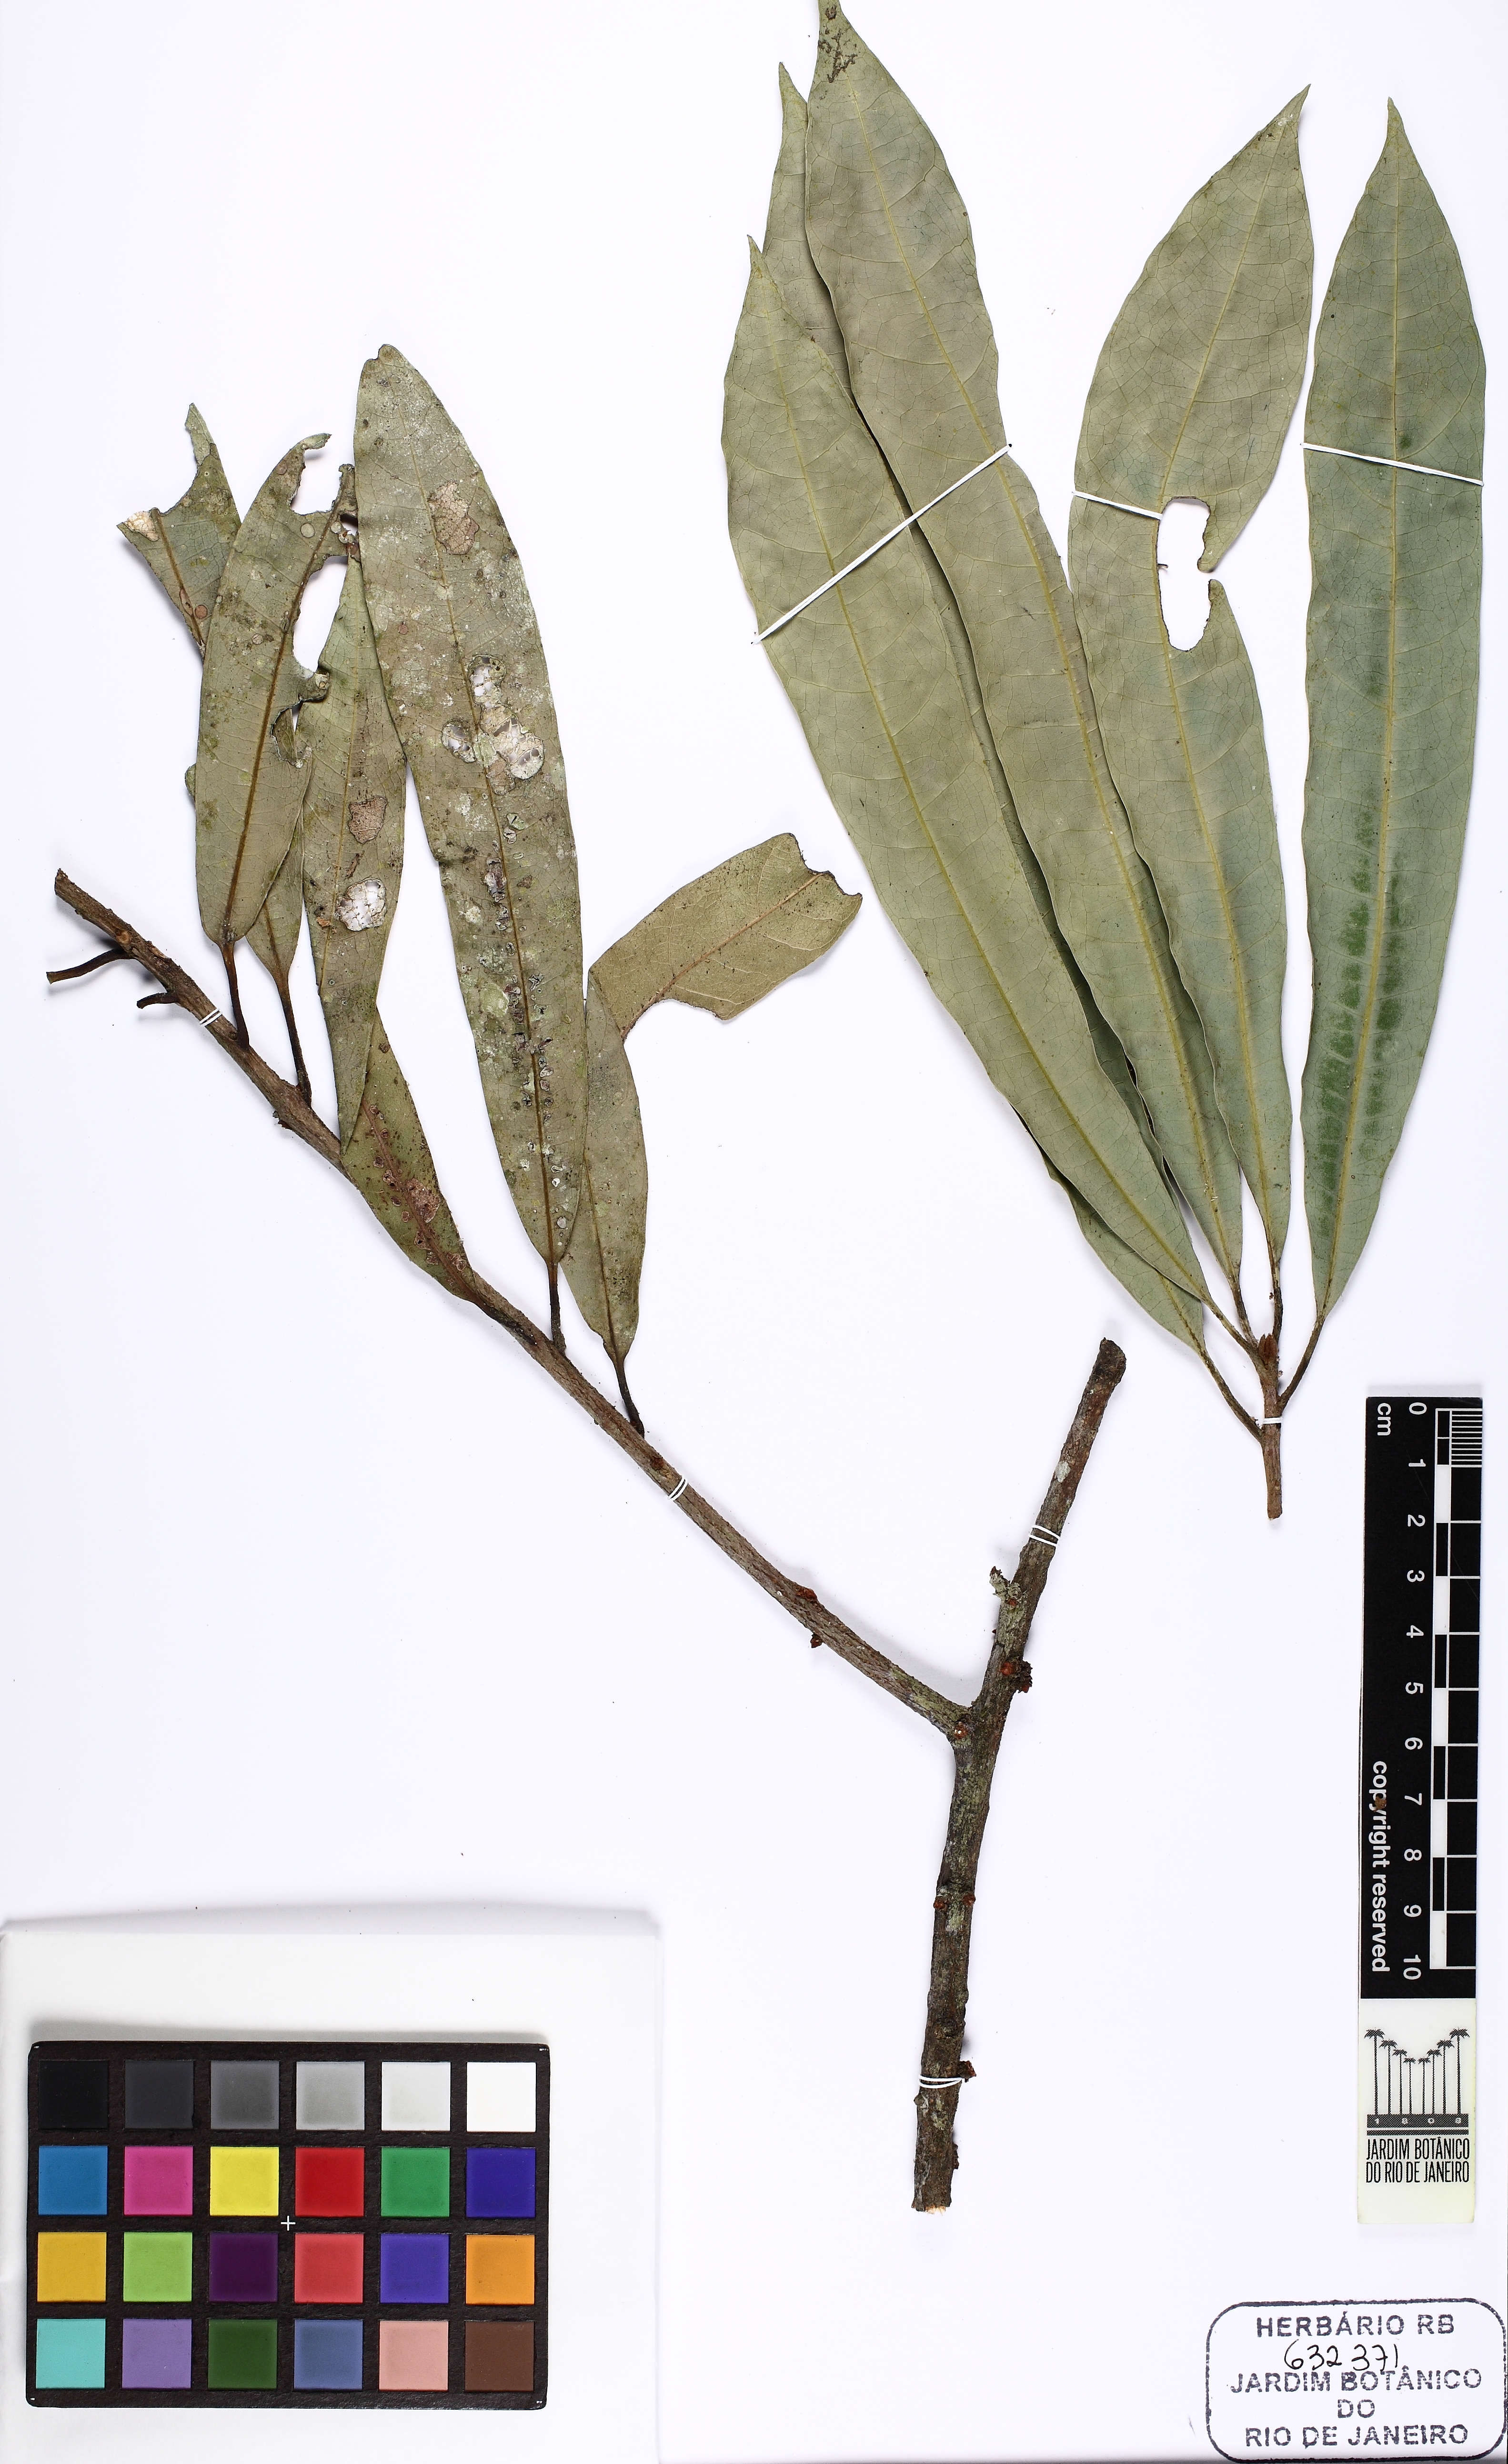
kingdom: Plantae
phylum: Tracheophyta
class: Magnoliopsida
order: Ericales
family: Sapotaceae
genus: Pouteria
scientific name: Pouteria durlandii
